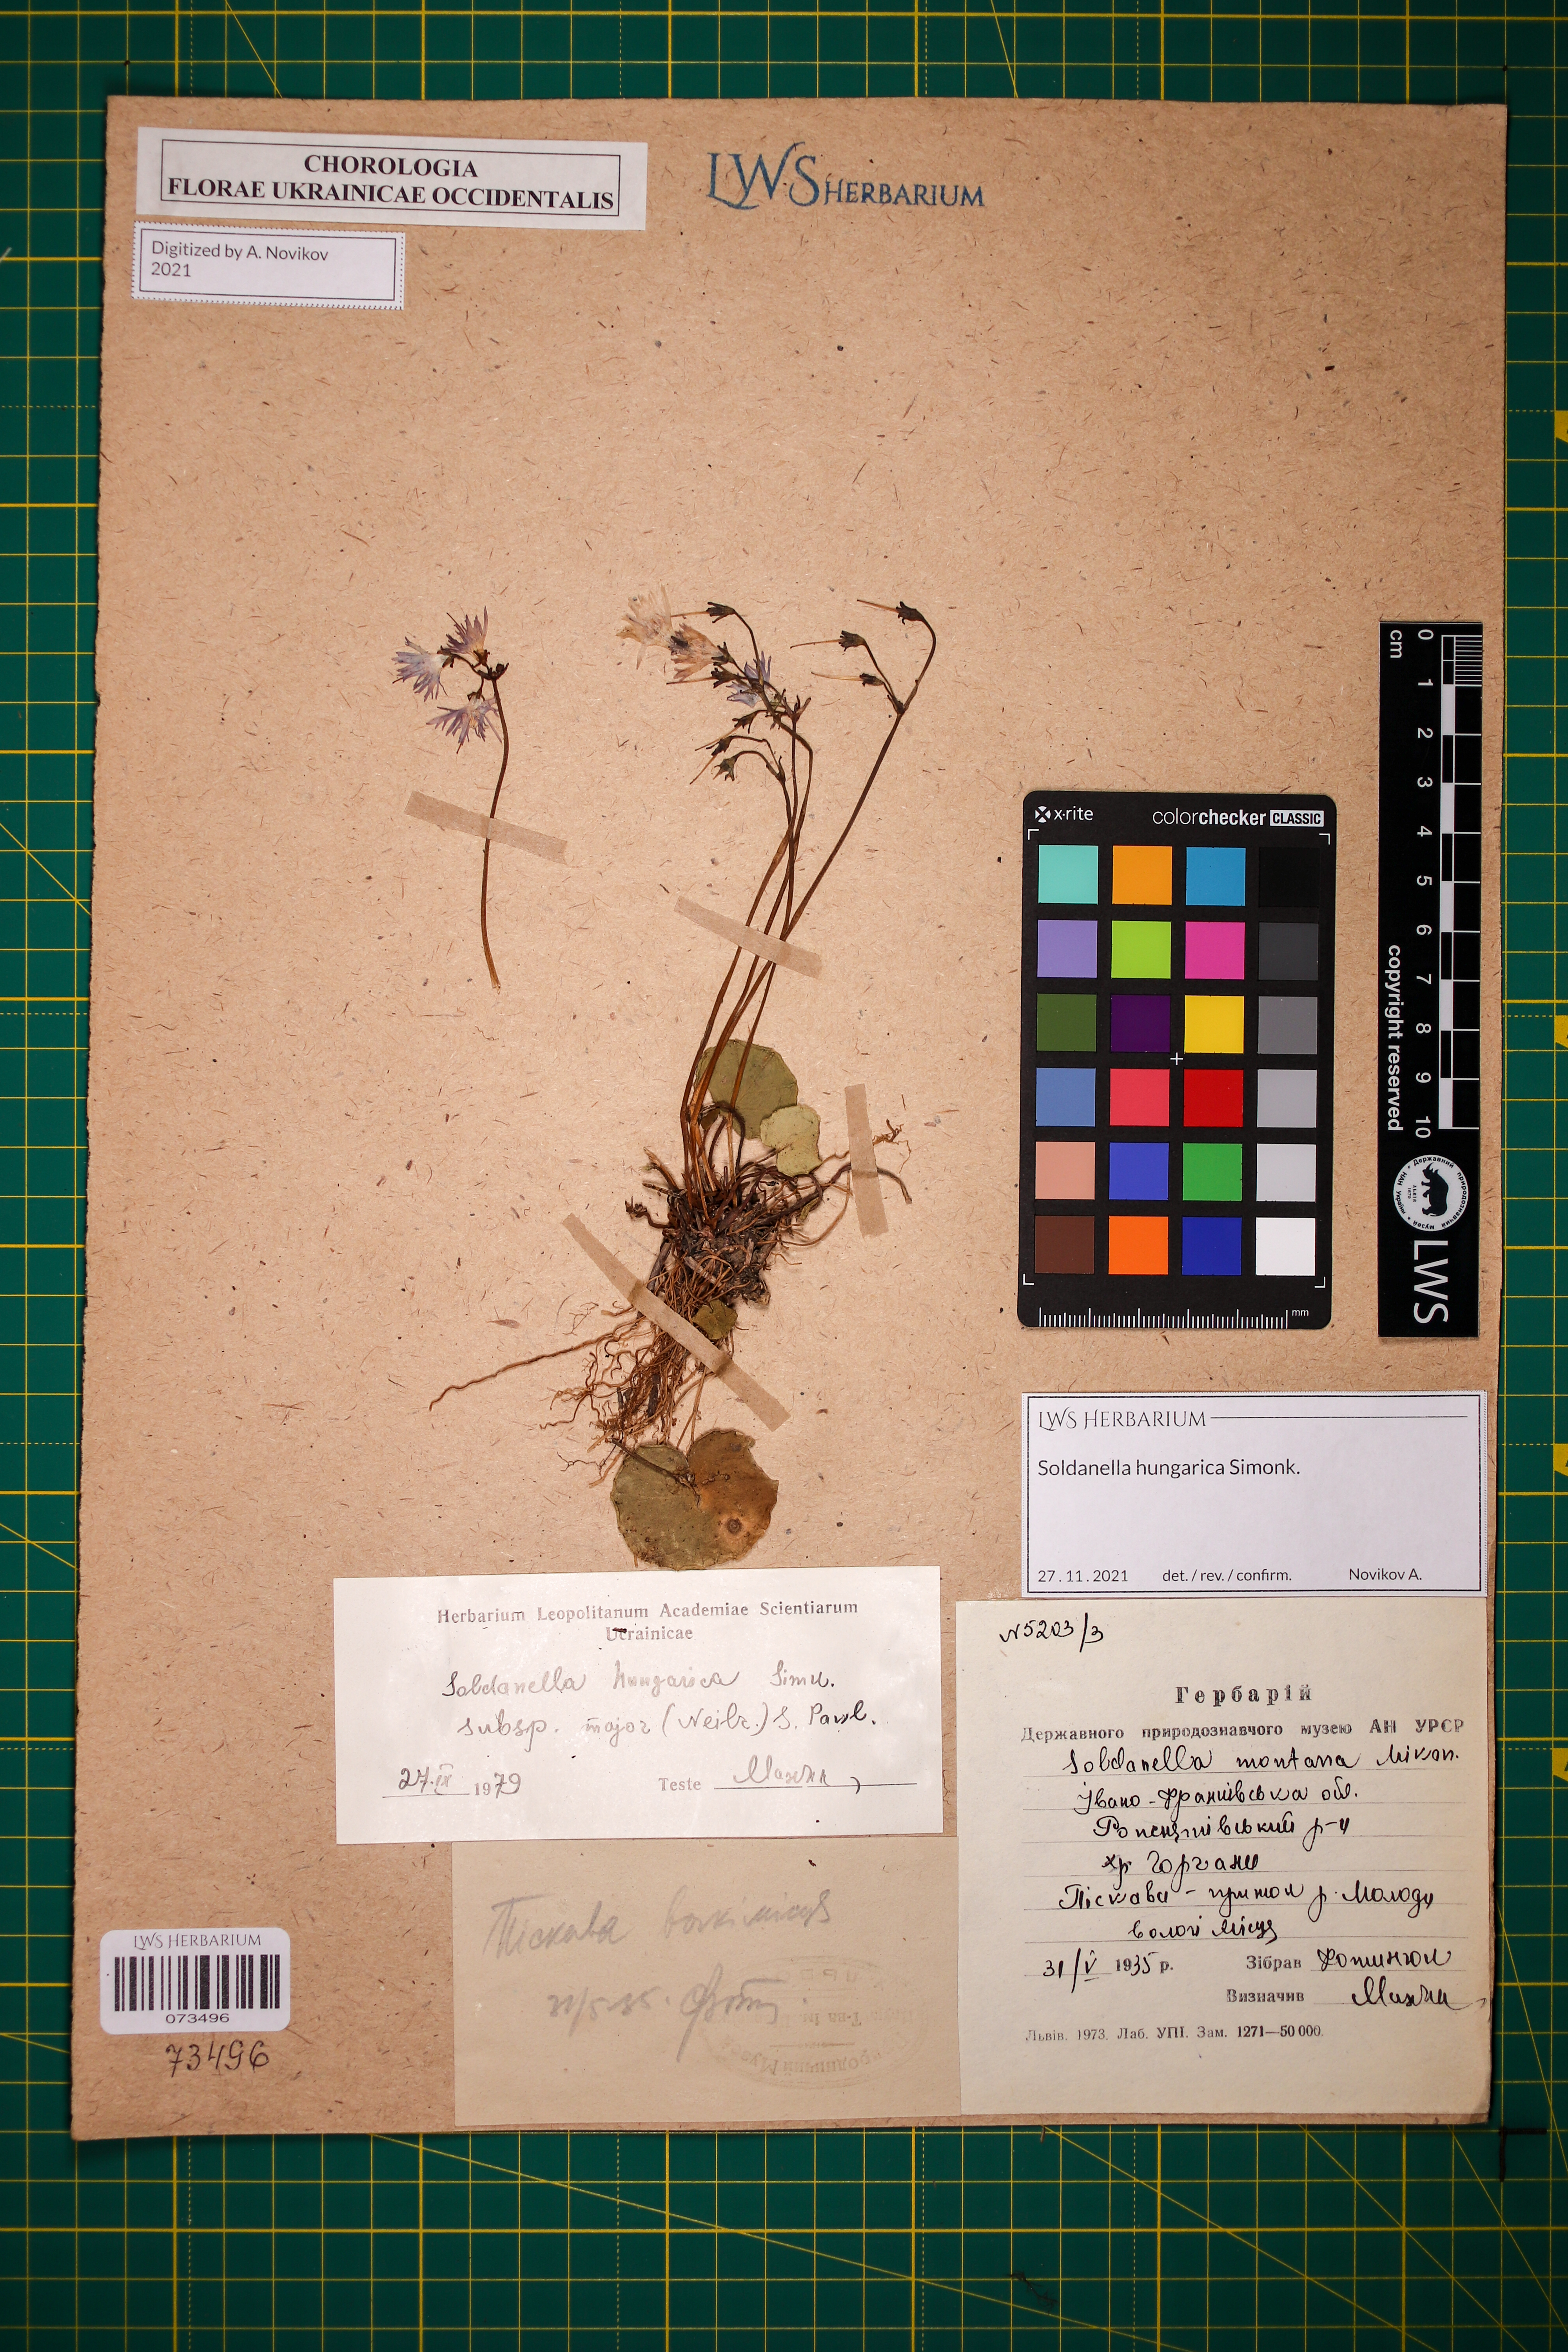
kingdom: Plantae
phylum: Tracheophyta
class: Magnoliopsida
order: Ericales
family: Primulaceae
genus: Soldanella
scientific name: Soldanella hungarica
